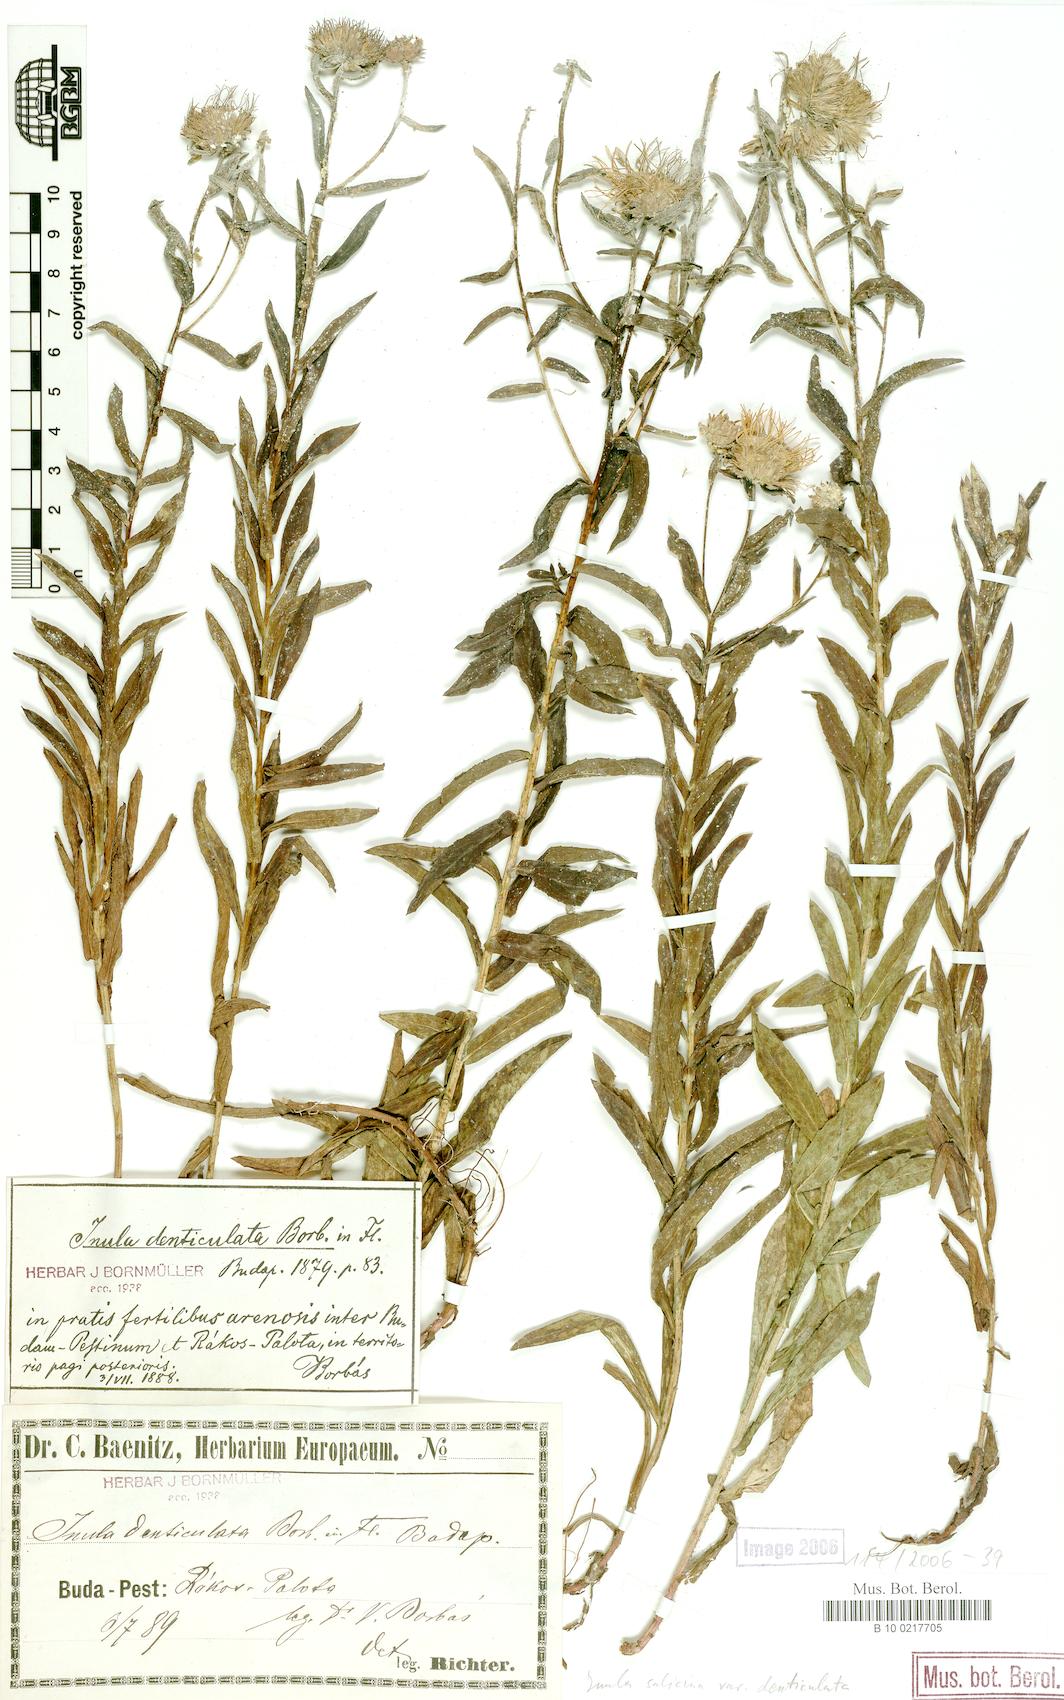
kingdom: Plantae
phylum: Tracheophyta
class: Magnoliopsida
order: Asterales
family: Asteraceae
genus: Pentanema
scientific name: Pentanema sabuletorum
